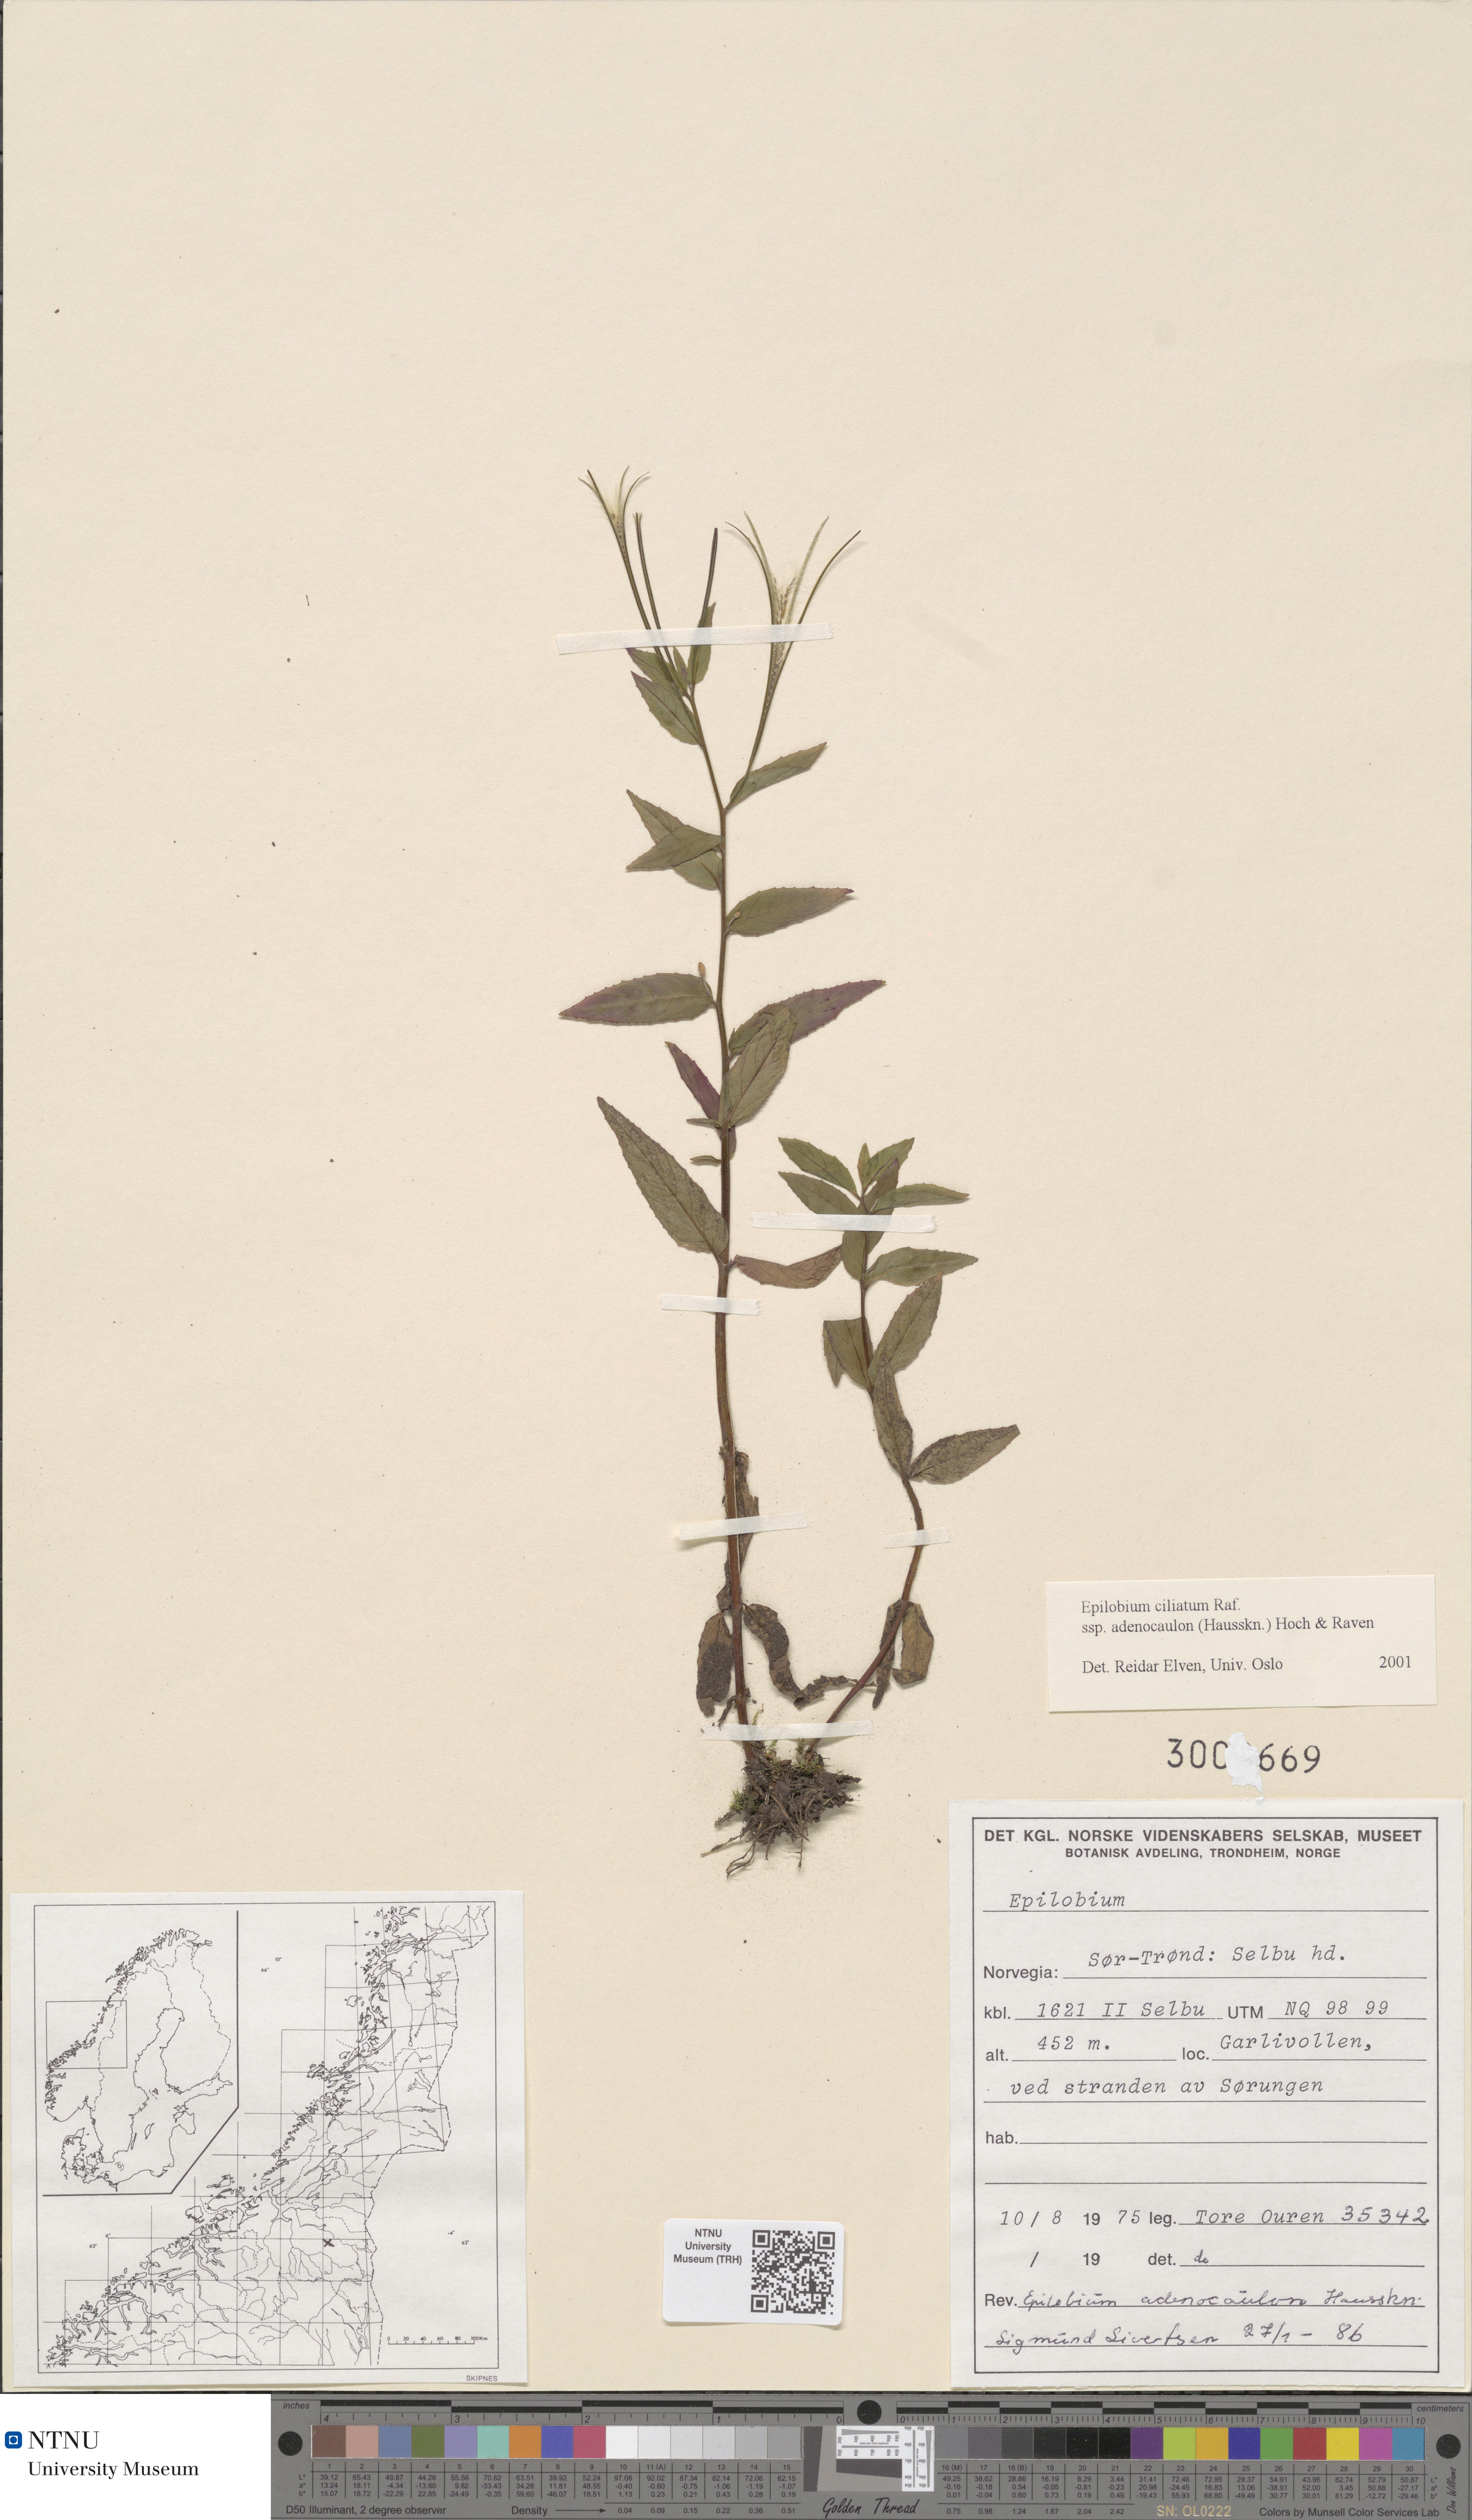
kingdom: Plantae
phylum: Tracheophyta
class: Magnoliopsida
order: Myrtales
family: Onagraceae
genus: Epilobium
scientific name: Epilobium ciliatum
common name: American willowherb
